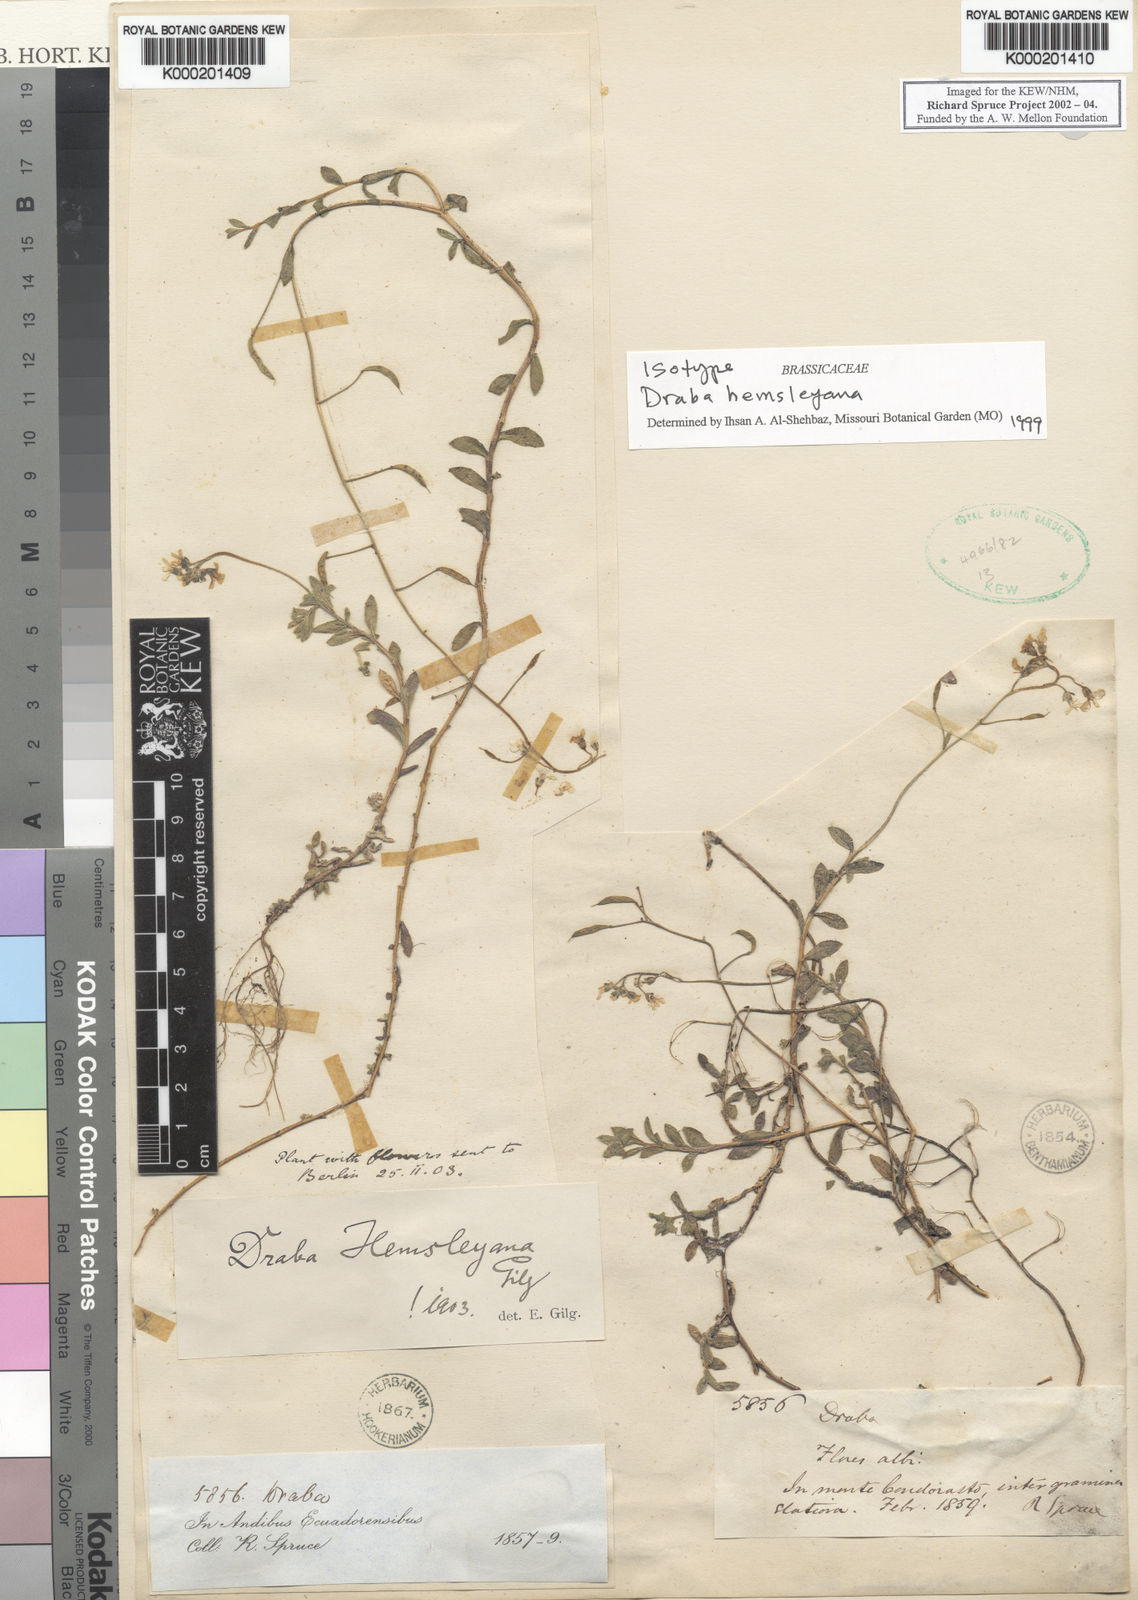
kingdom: Plantae
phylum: Tracheophyta
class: Magnoliopsida
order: Brassicales
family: Brassicaceae
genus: Draba
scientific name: Draba hemsleyana
